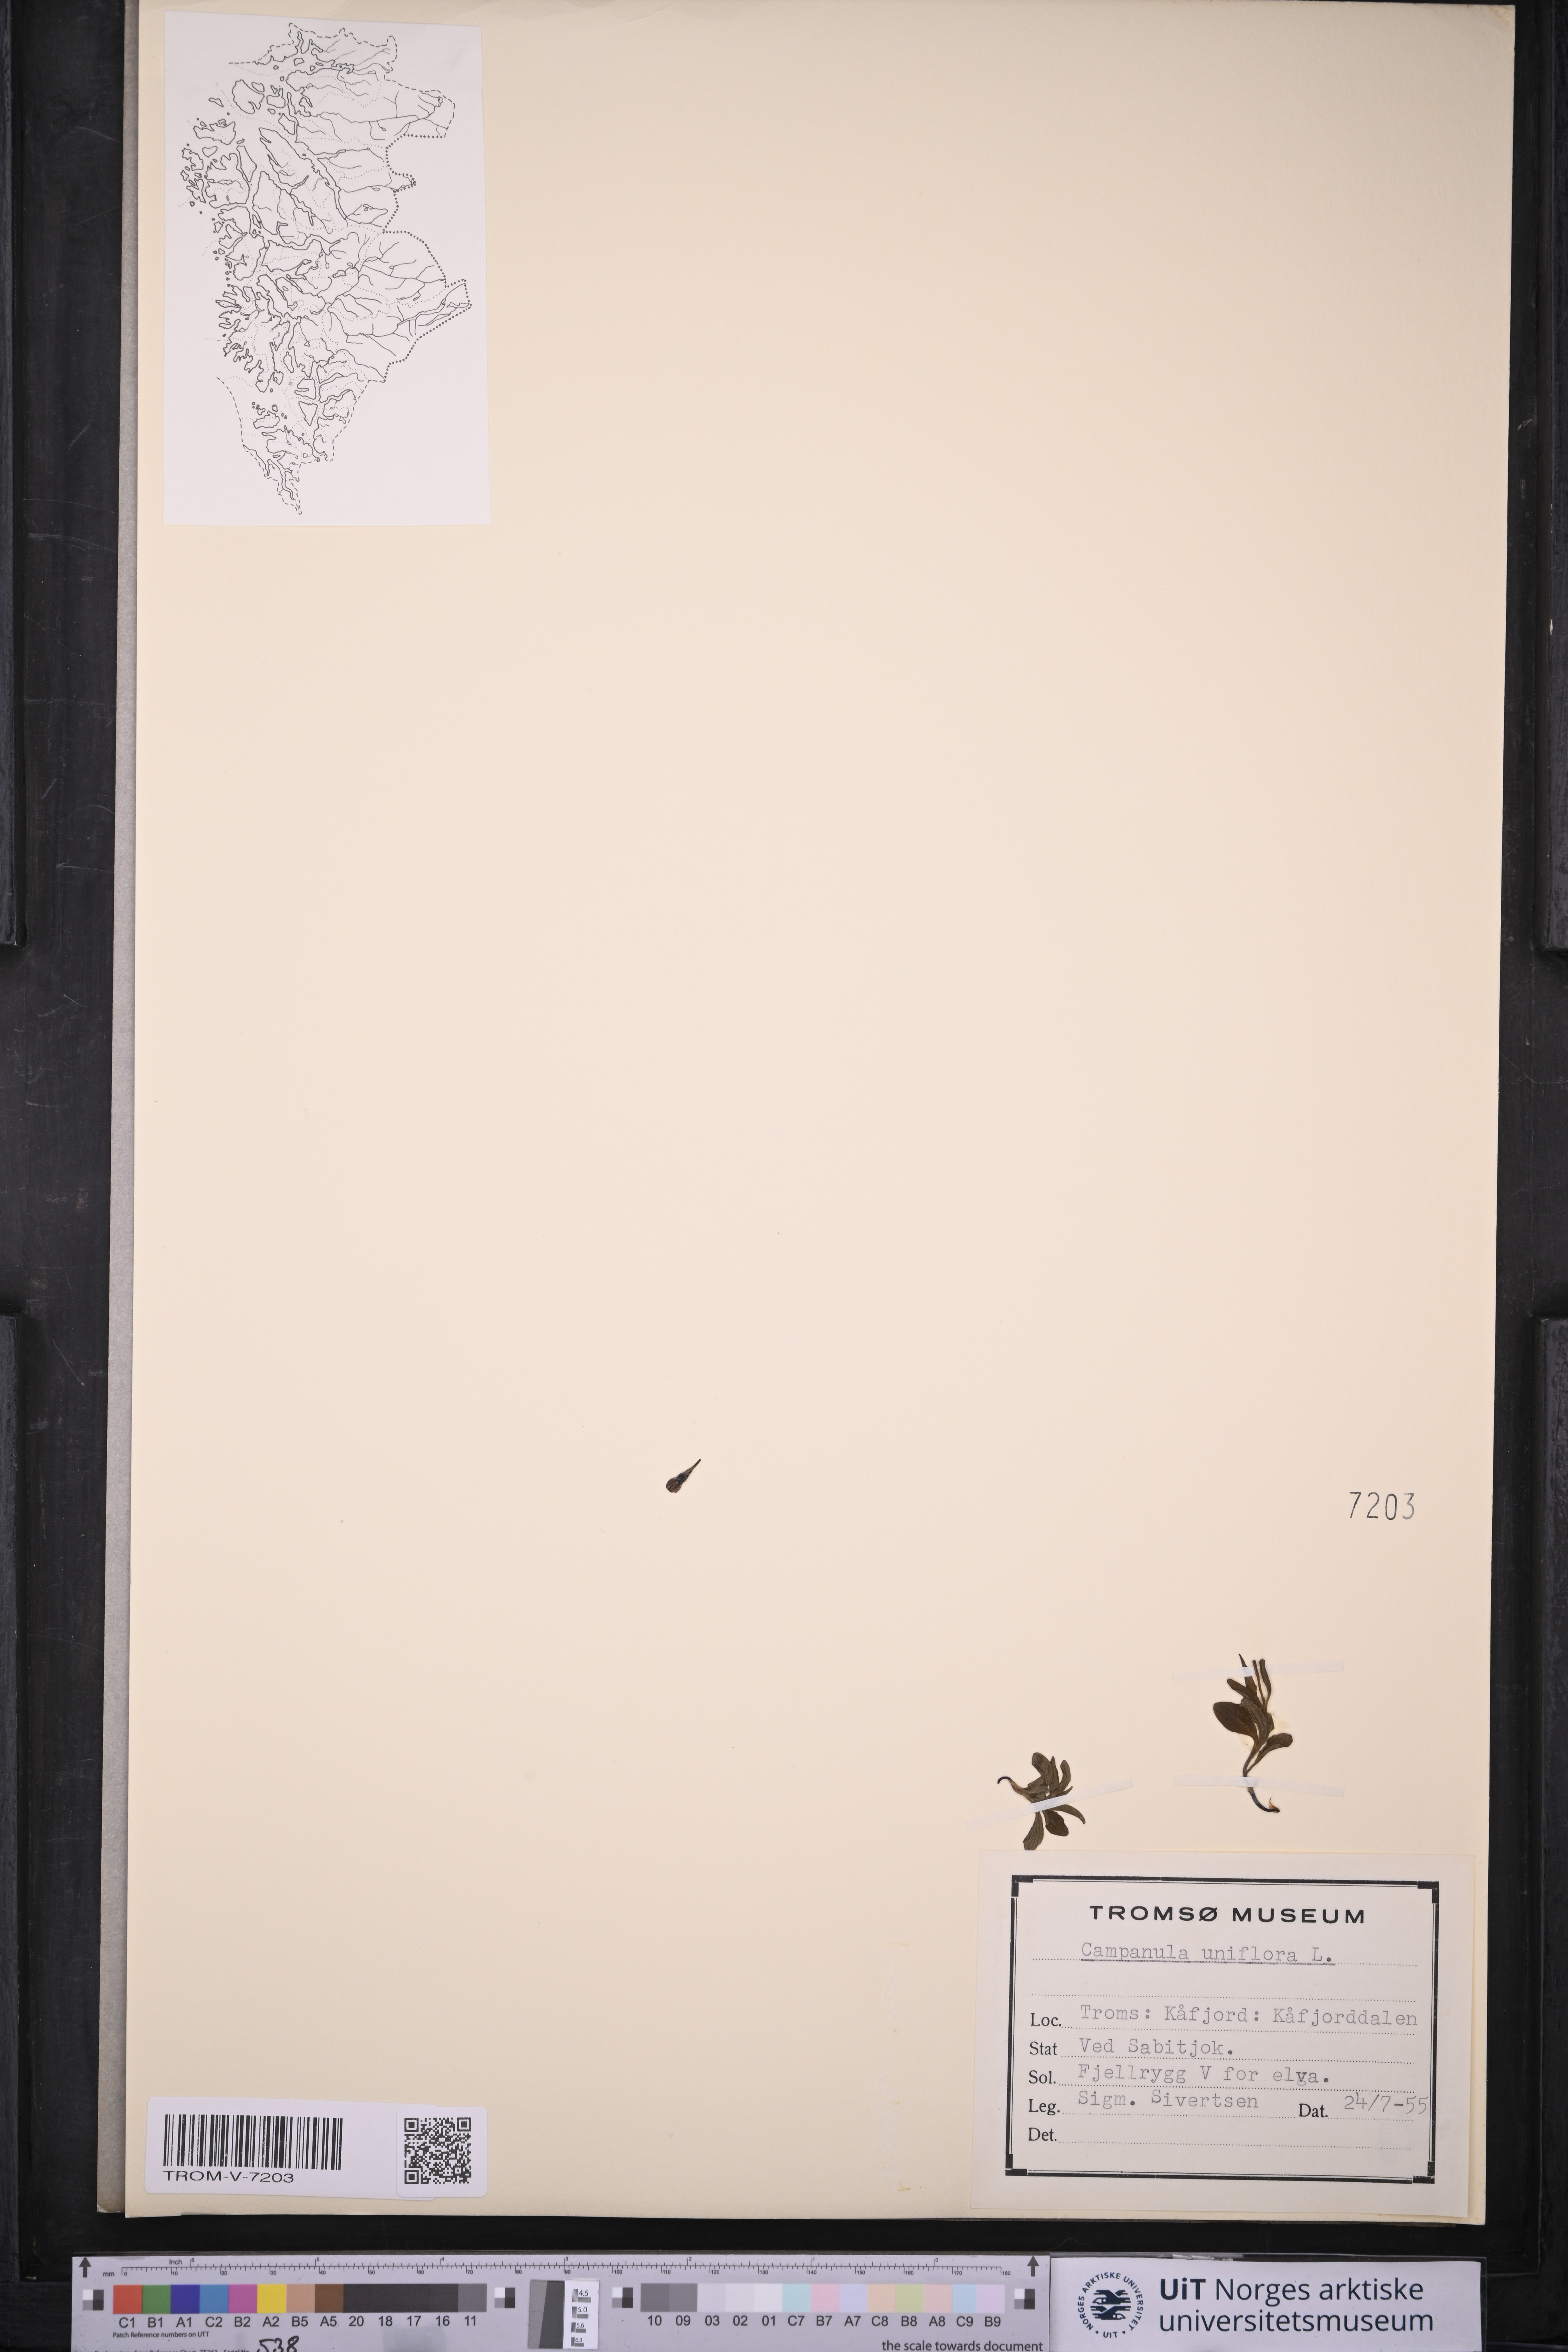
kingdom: Plantae
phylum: Tracheophyta
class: Magnoliopsida
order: Asterales
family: Campanulaceae
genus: Melanocalyx
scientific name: Melanocalyx uniflora
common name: Alpine harebell
